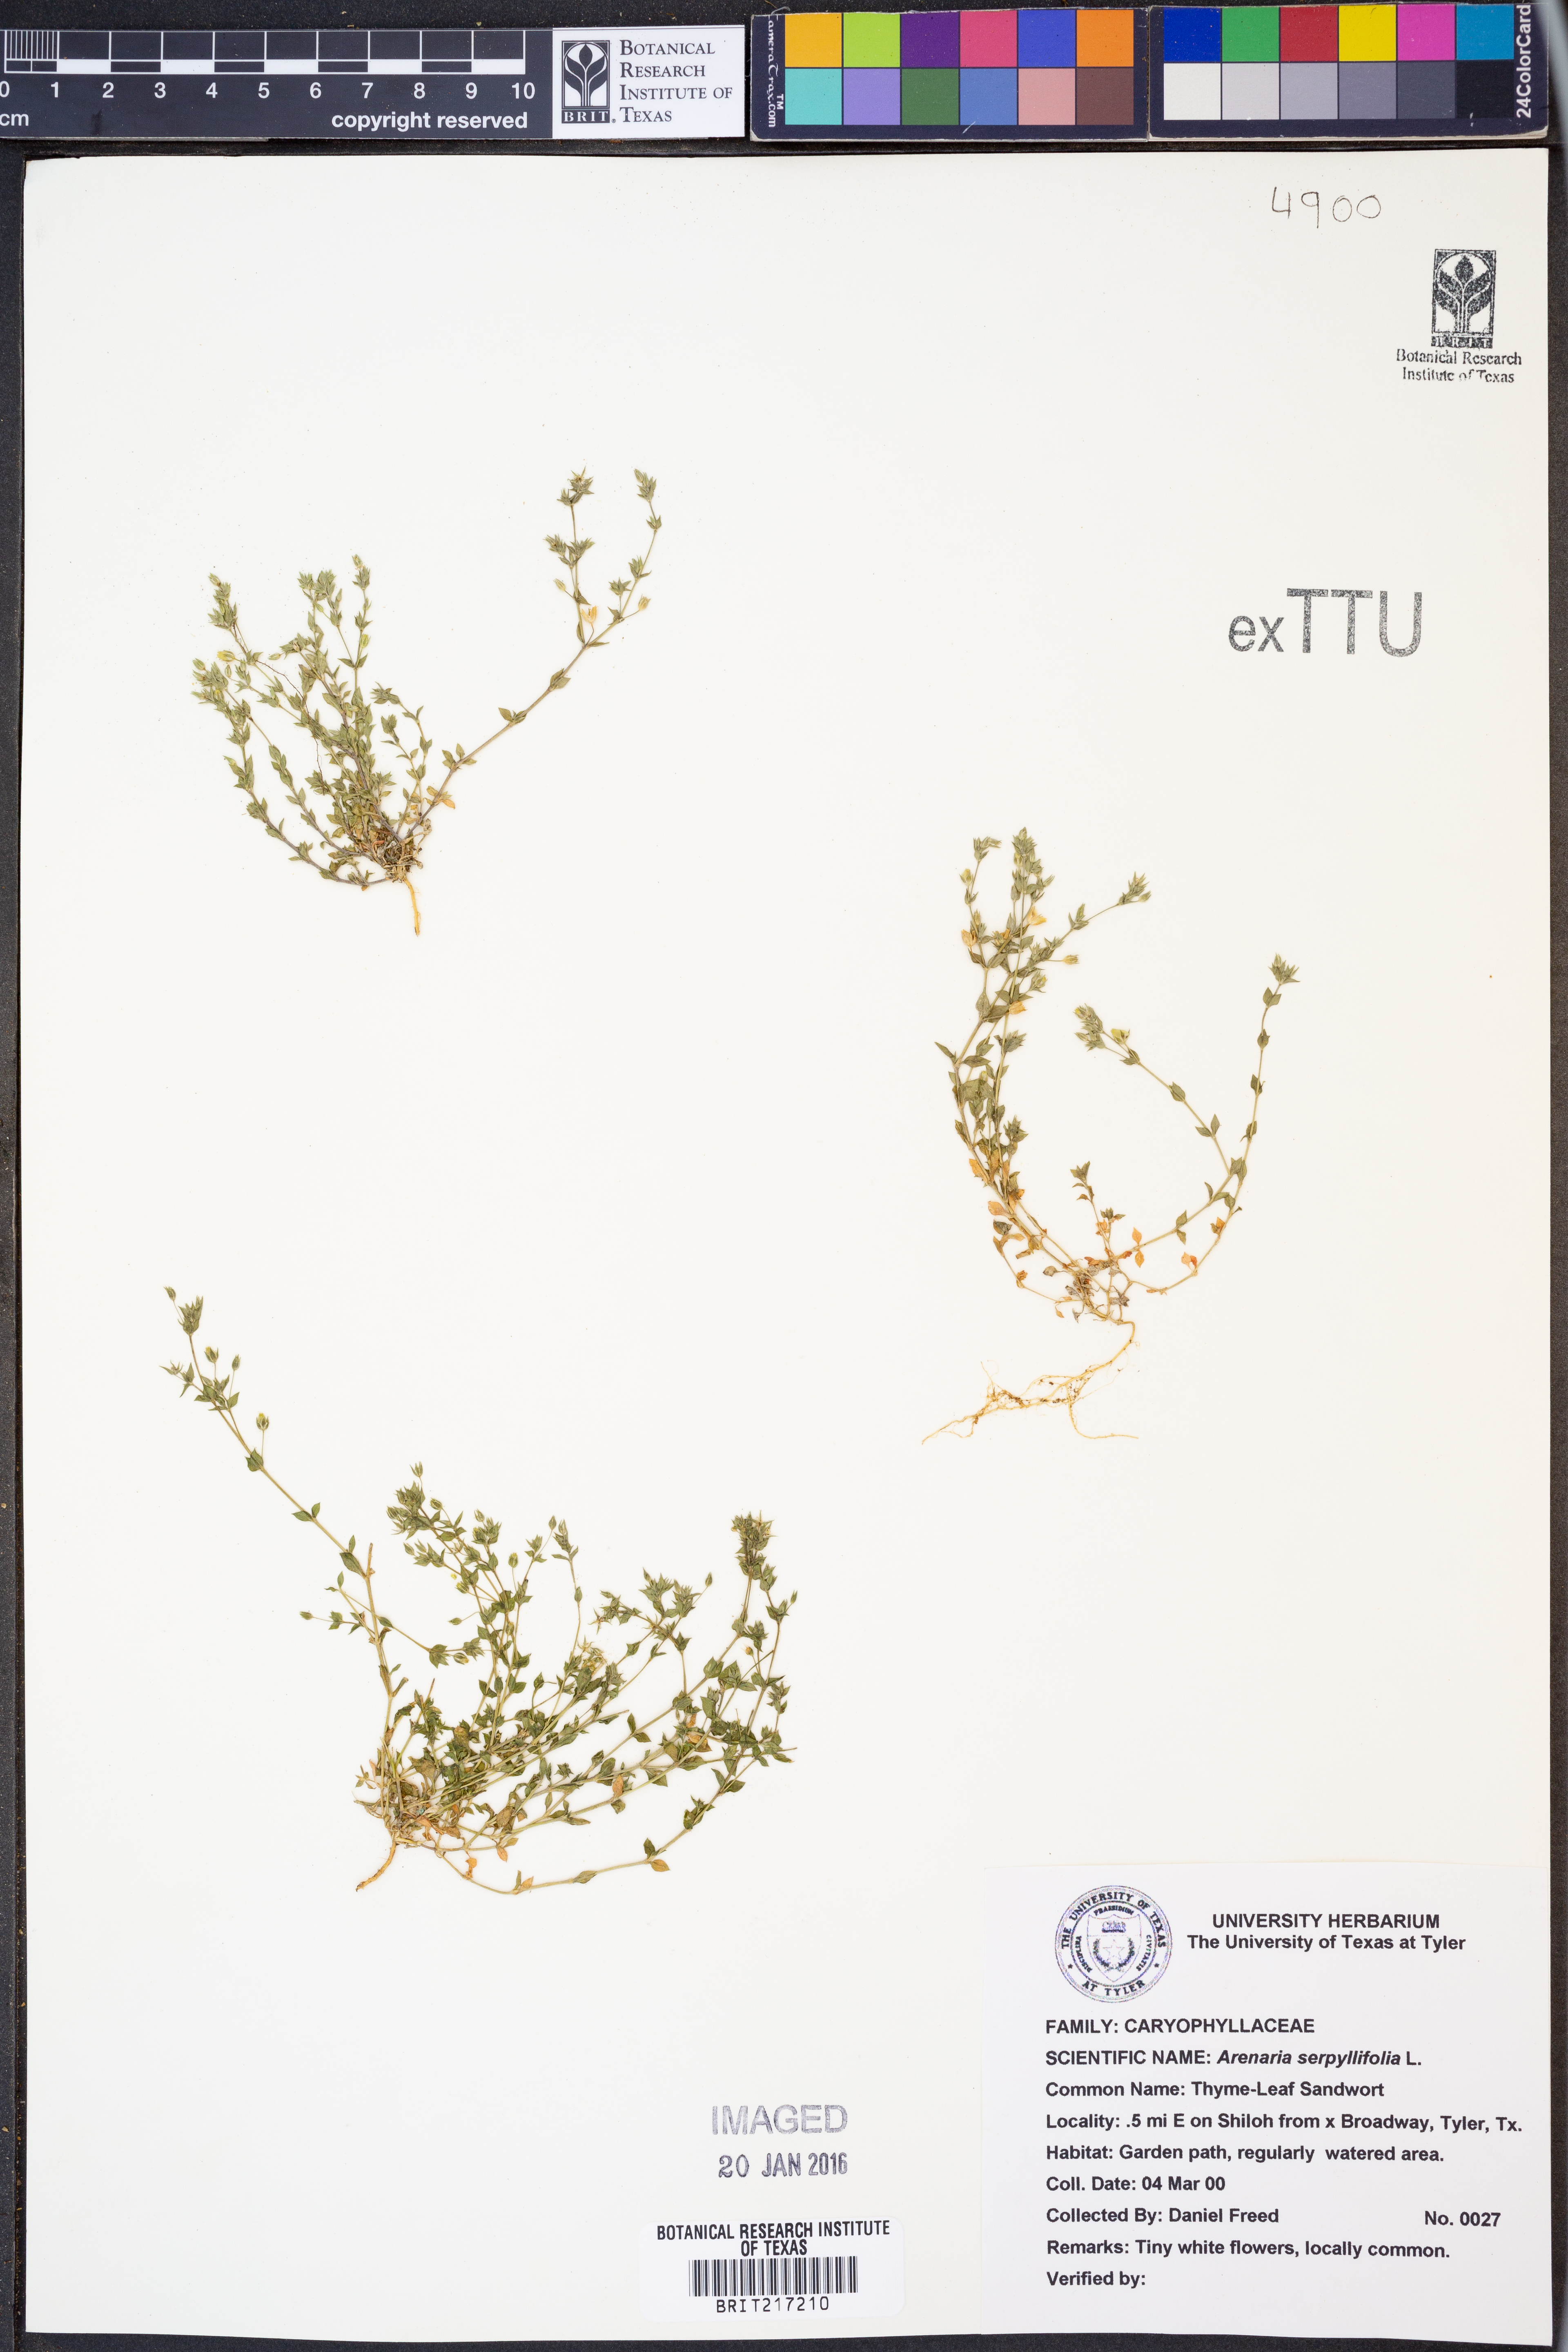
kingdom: Plantae
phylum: Tracheophyta
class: Magnoliopsida
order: Caryophyllales
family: Caryophyllaceae
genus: Arenaria
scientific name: Arenaria serpyllifolia
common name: Thyme-leaved sandwort
